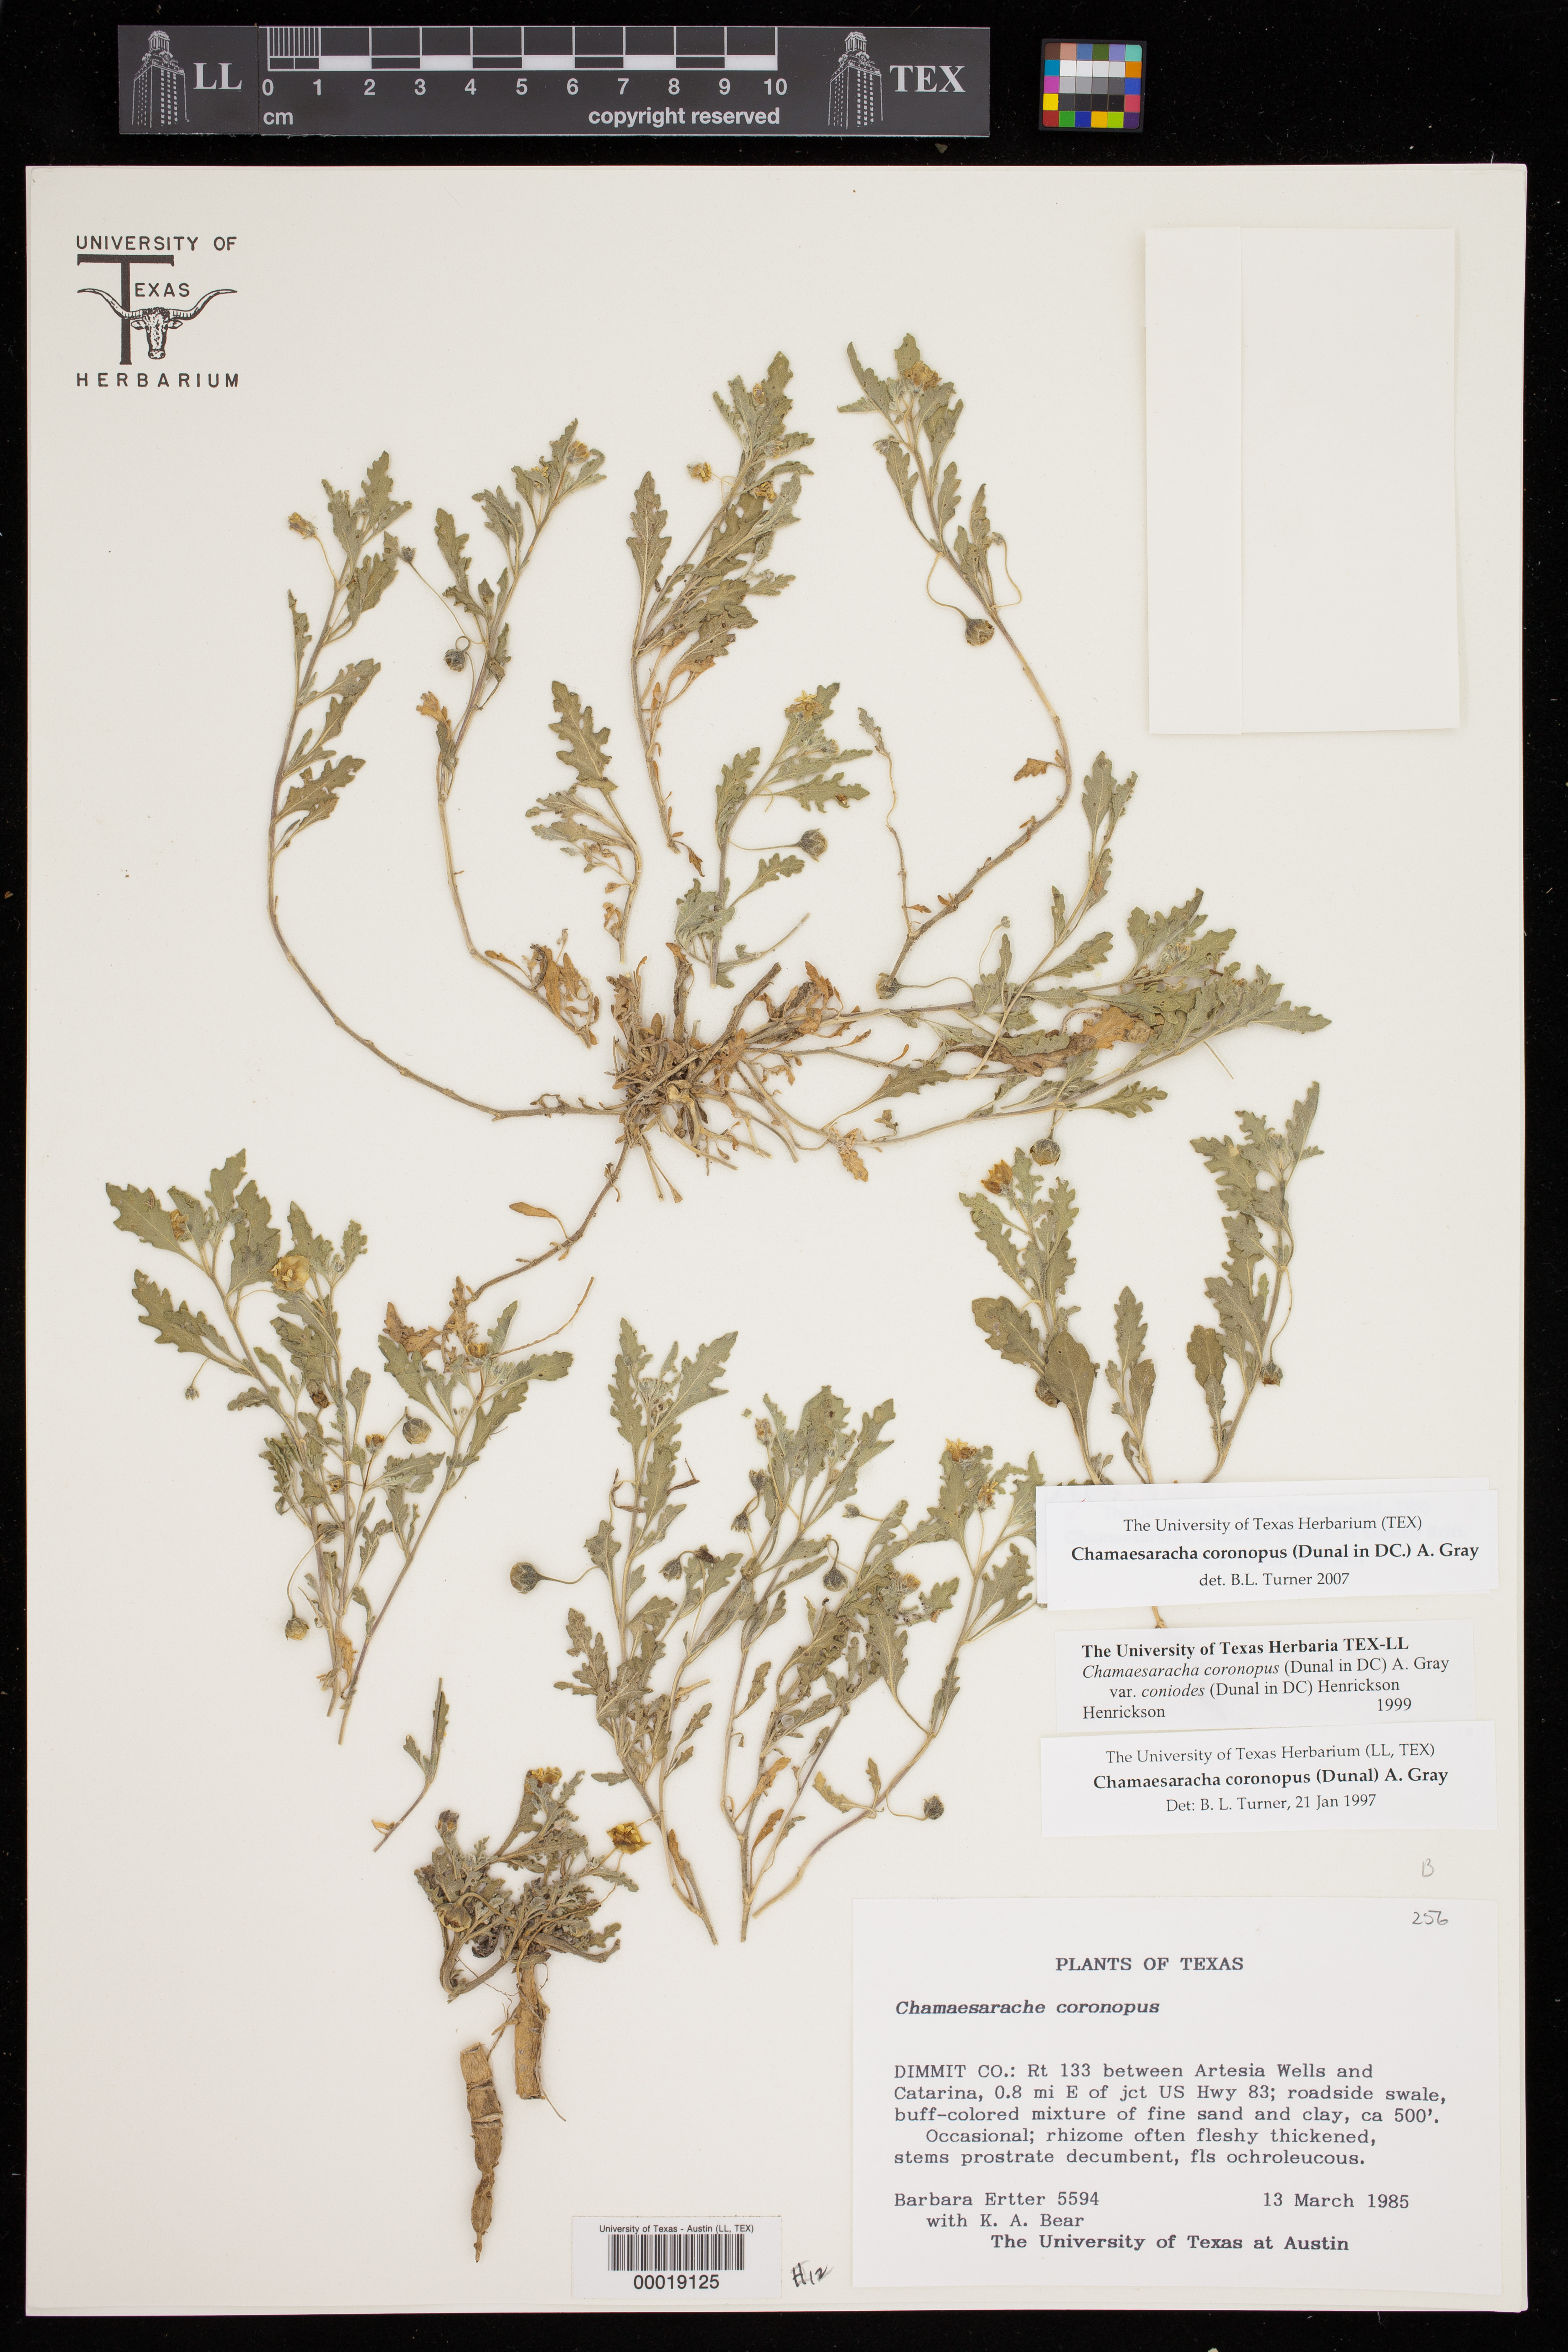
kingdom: Plantae
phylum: Tracheophyta
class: Magnoliopsida
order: Solanales
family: Solanaceae
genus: Chamaesaracha
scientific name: Chamaesaracha coniodes
